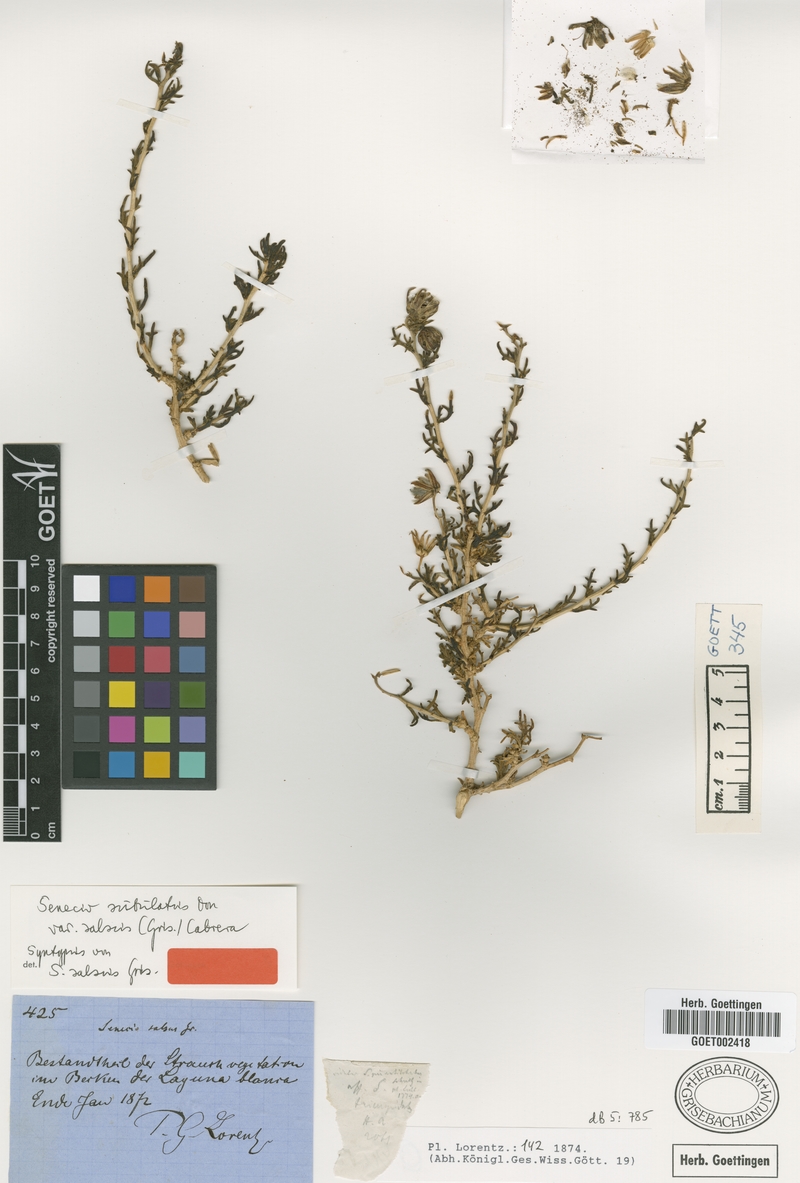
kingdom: Plantae
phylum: Tracheophyta
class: Magnoliopsida
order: Asterales
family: Asteraceae
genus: Senecio
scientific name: Senecio subulatus
